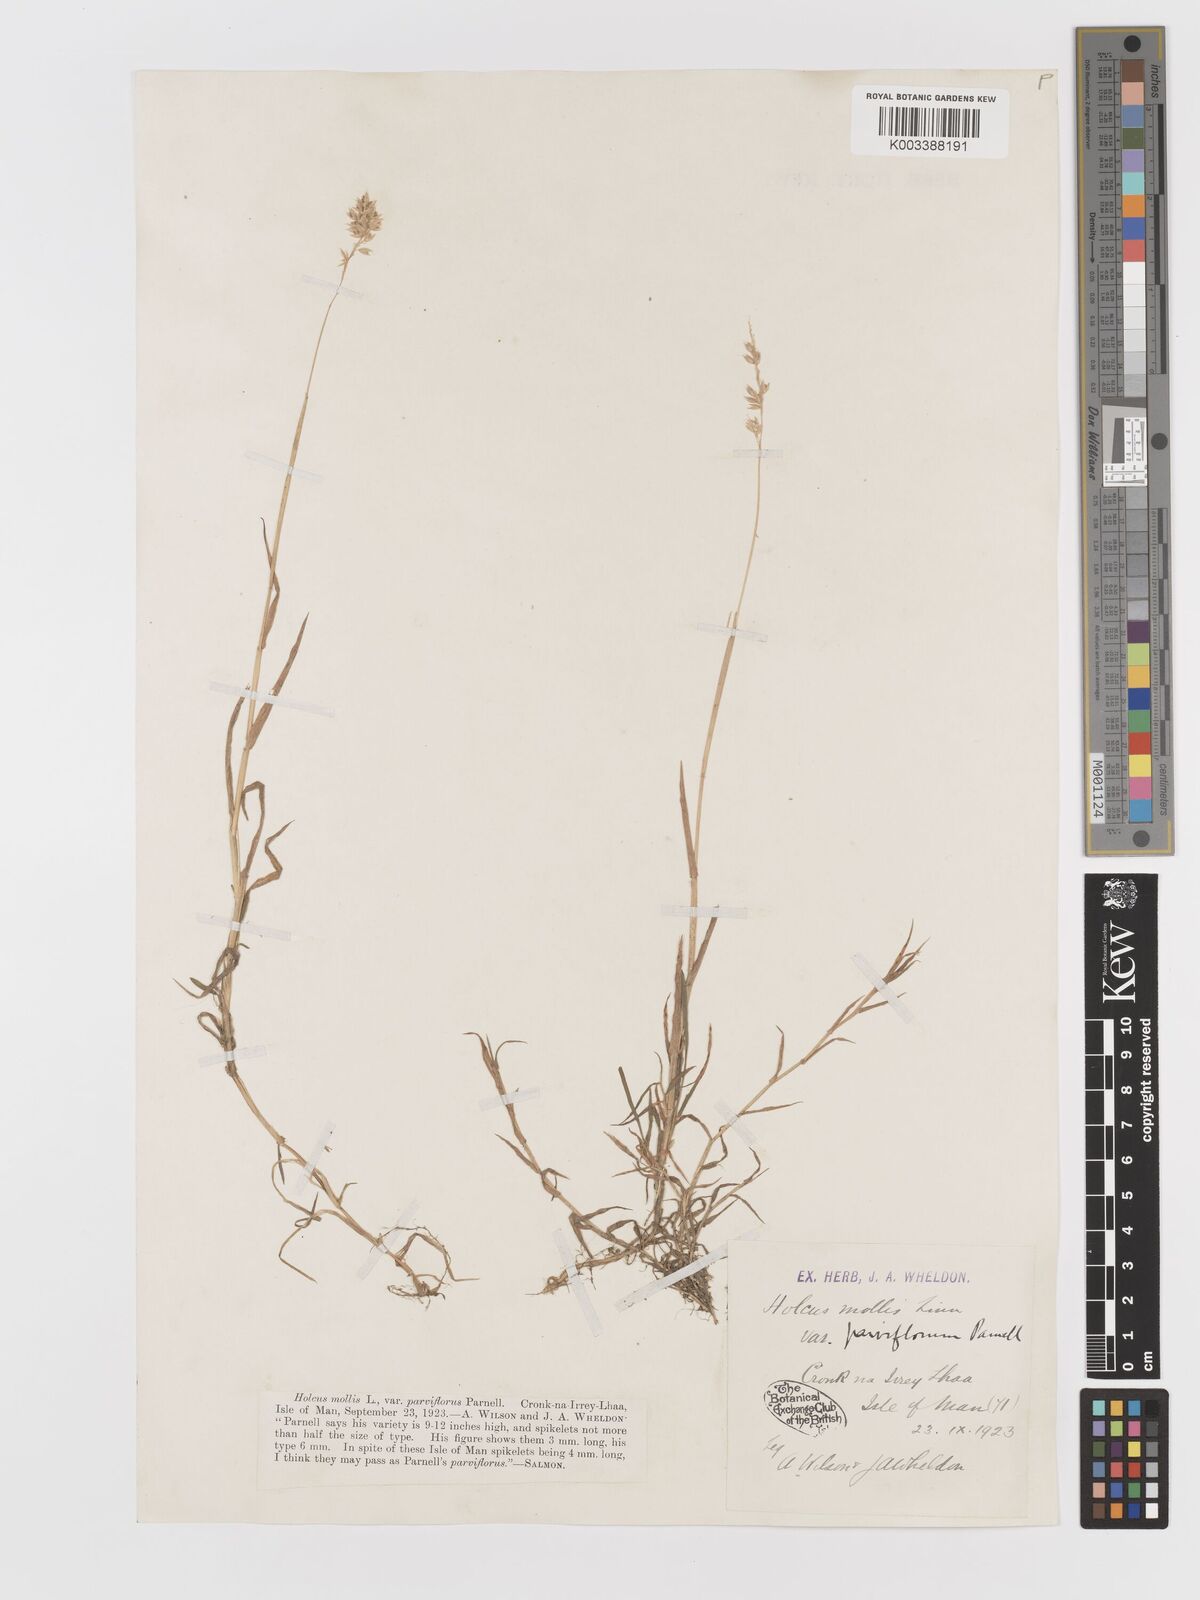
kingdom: Plantae
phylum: Tracheophyta
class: Liliopsida
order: Poales
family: Poaceae
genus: Holcus
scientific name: Holcus mollis
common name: Creeping velvetgrass
